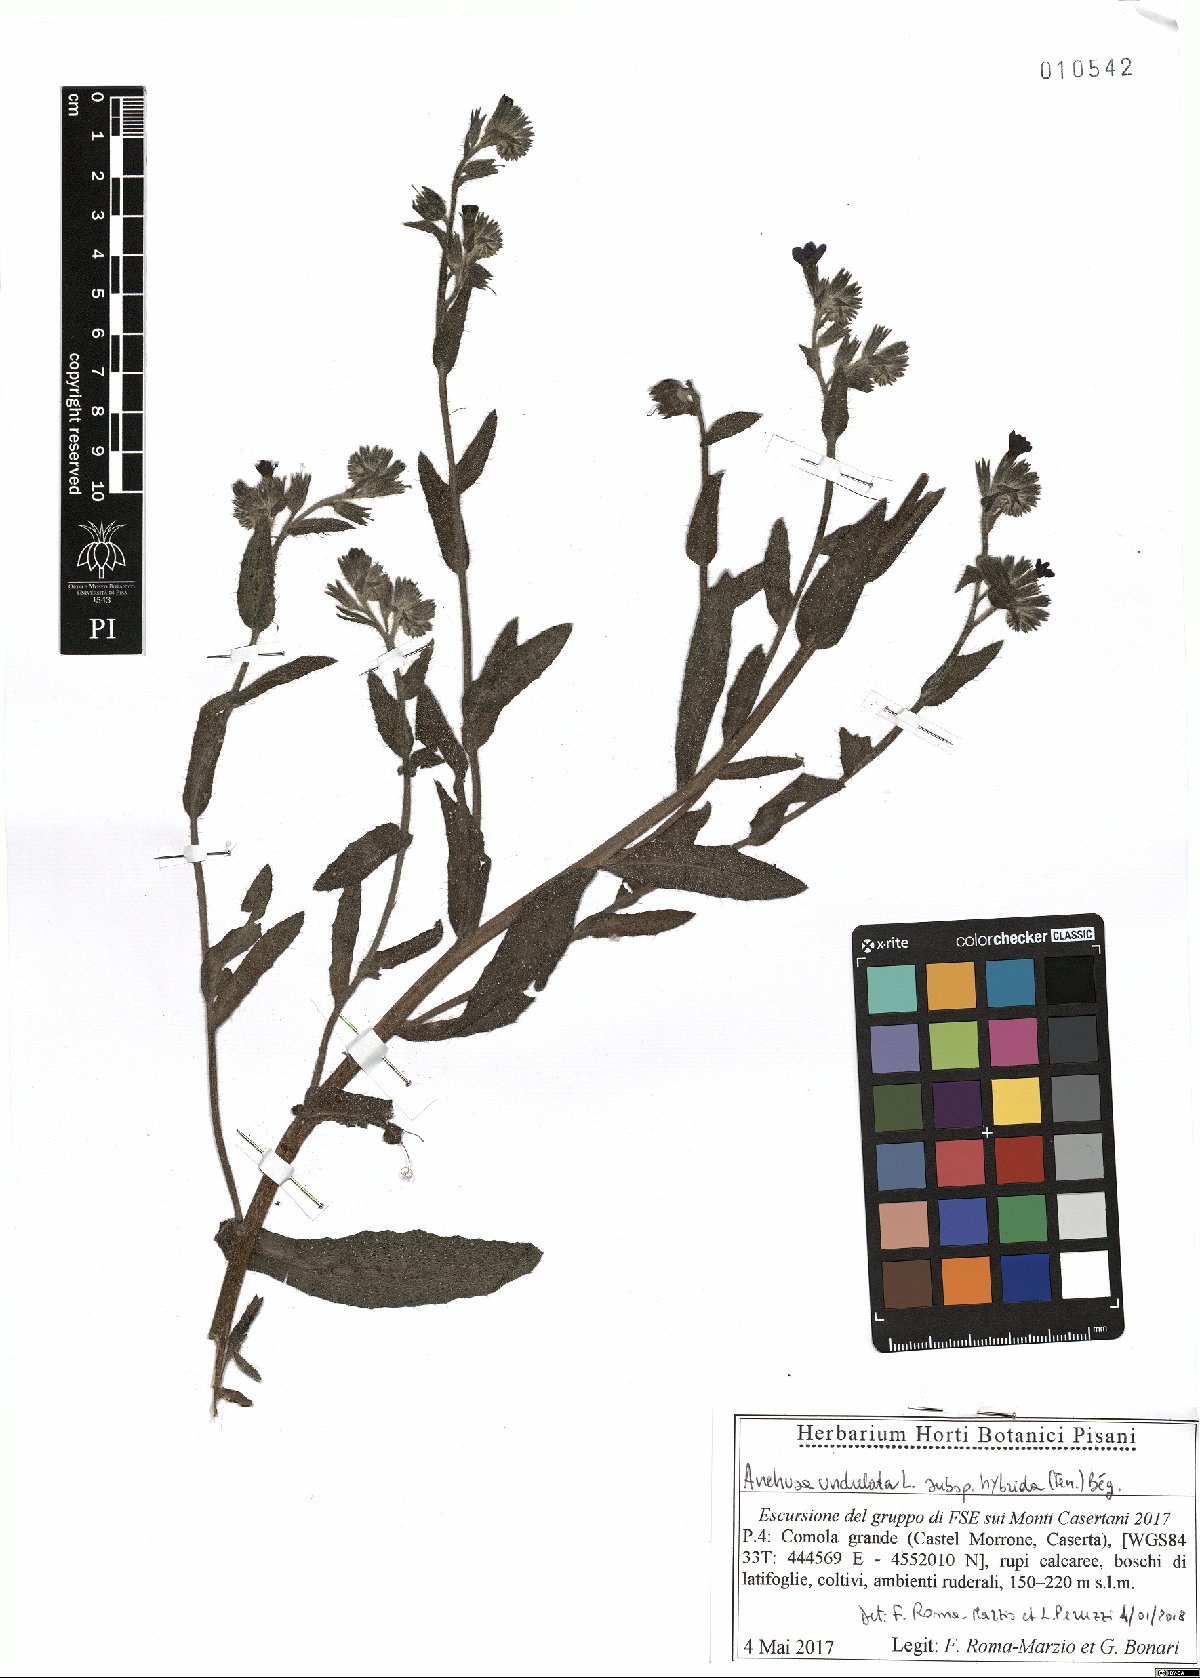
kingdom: Plantae
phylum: Tracheophyta
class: Magnoliopsida
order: Boraginales
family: Boraginaceae
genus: Anchusa
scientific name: Anchusa undulata
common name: Undulate alkanet
